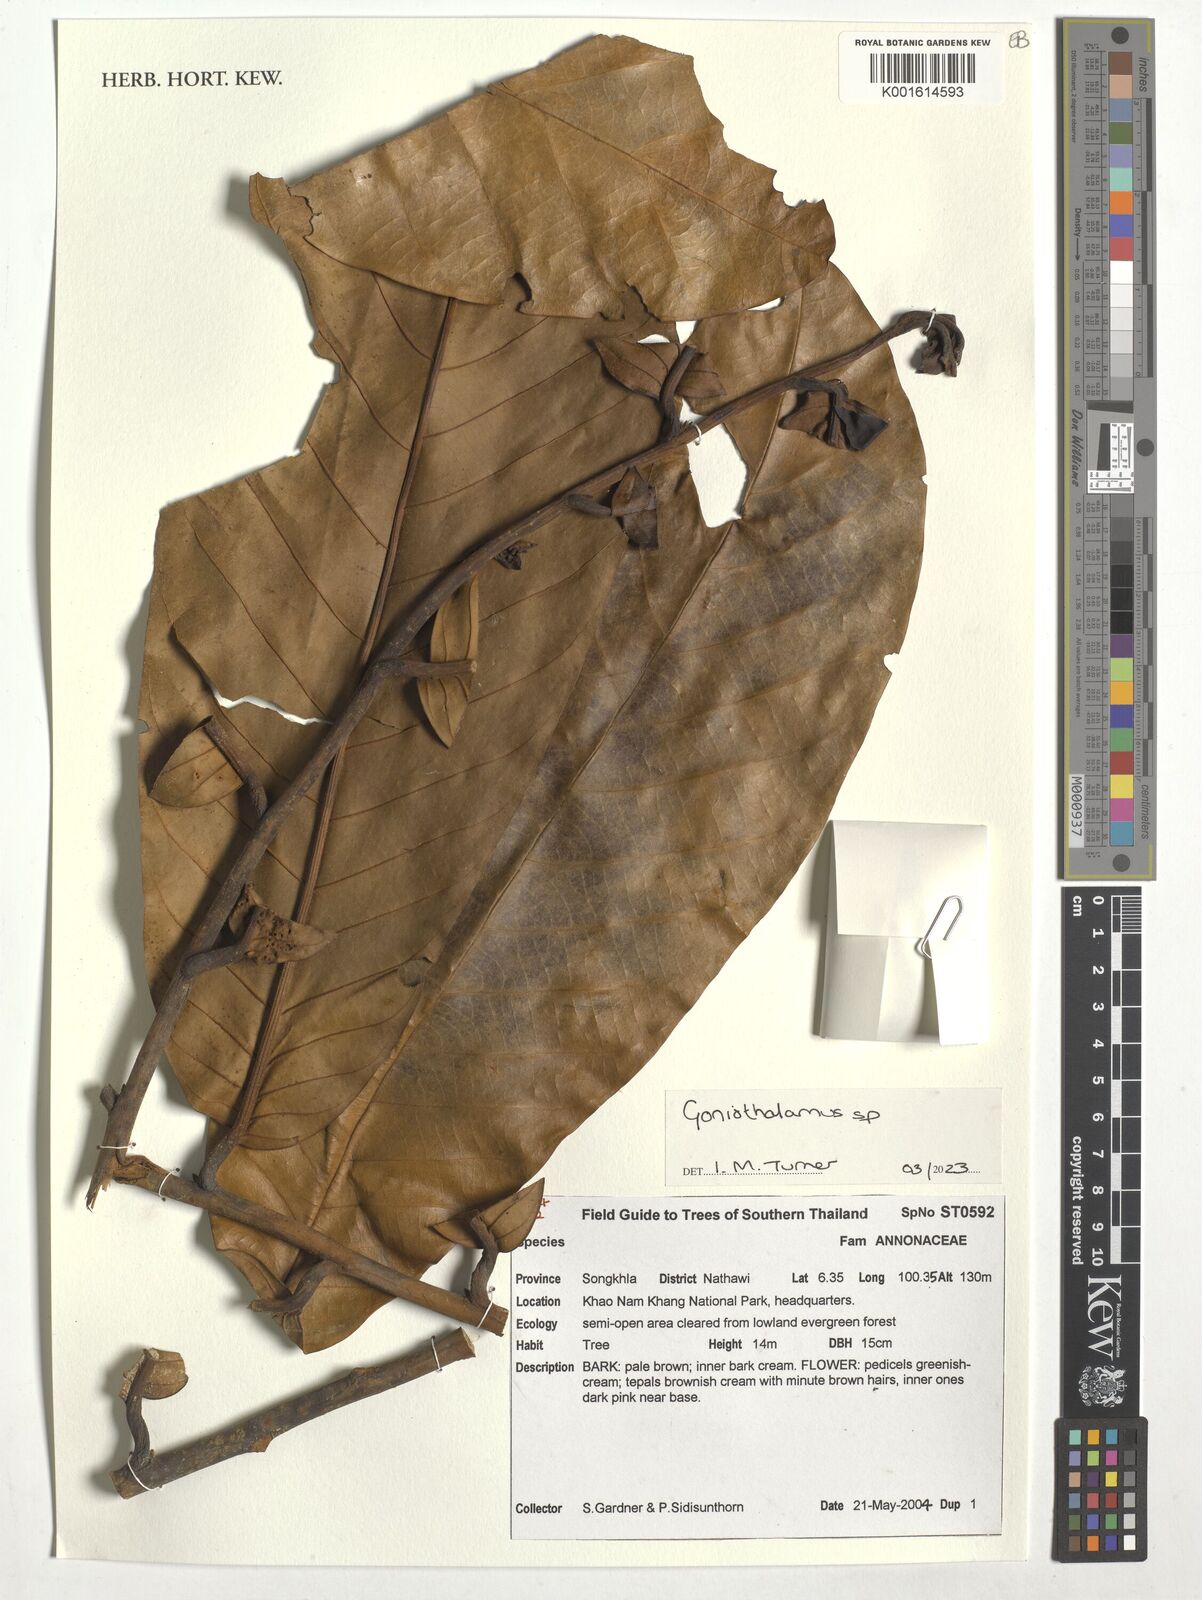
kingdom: Plantae
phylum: Tracheophyta
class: Magnoliopsida
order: Magnoliales
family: Annonaceae
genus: Goniothalamus
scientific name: Goniothalamus
